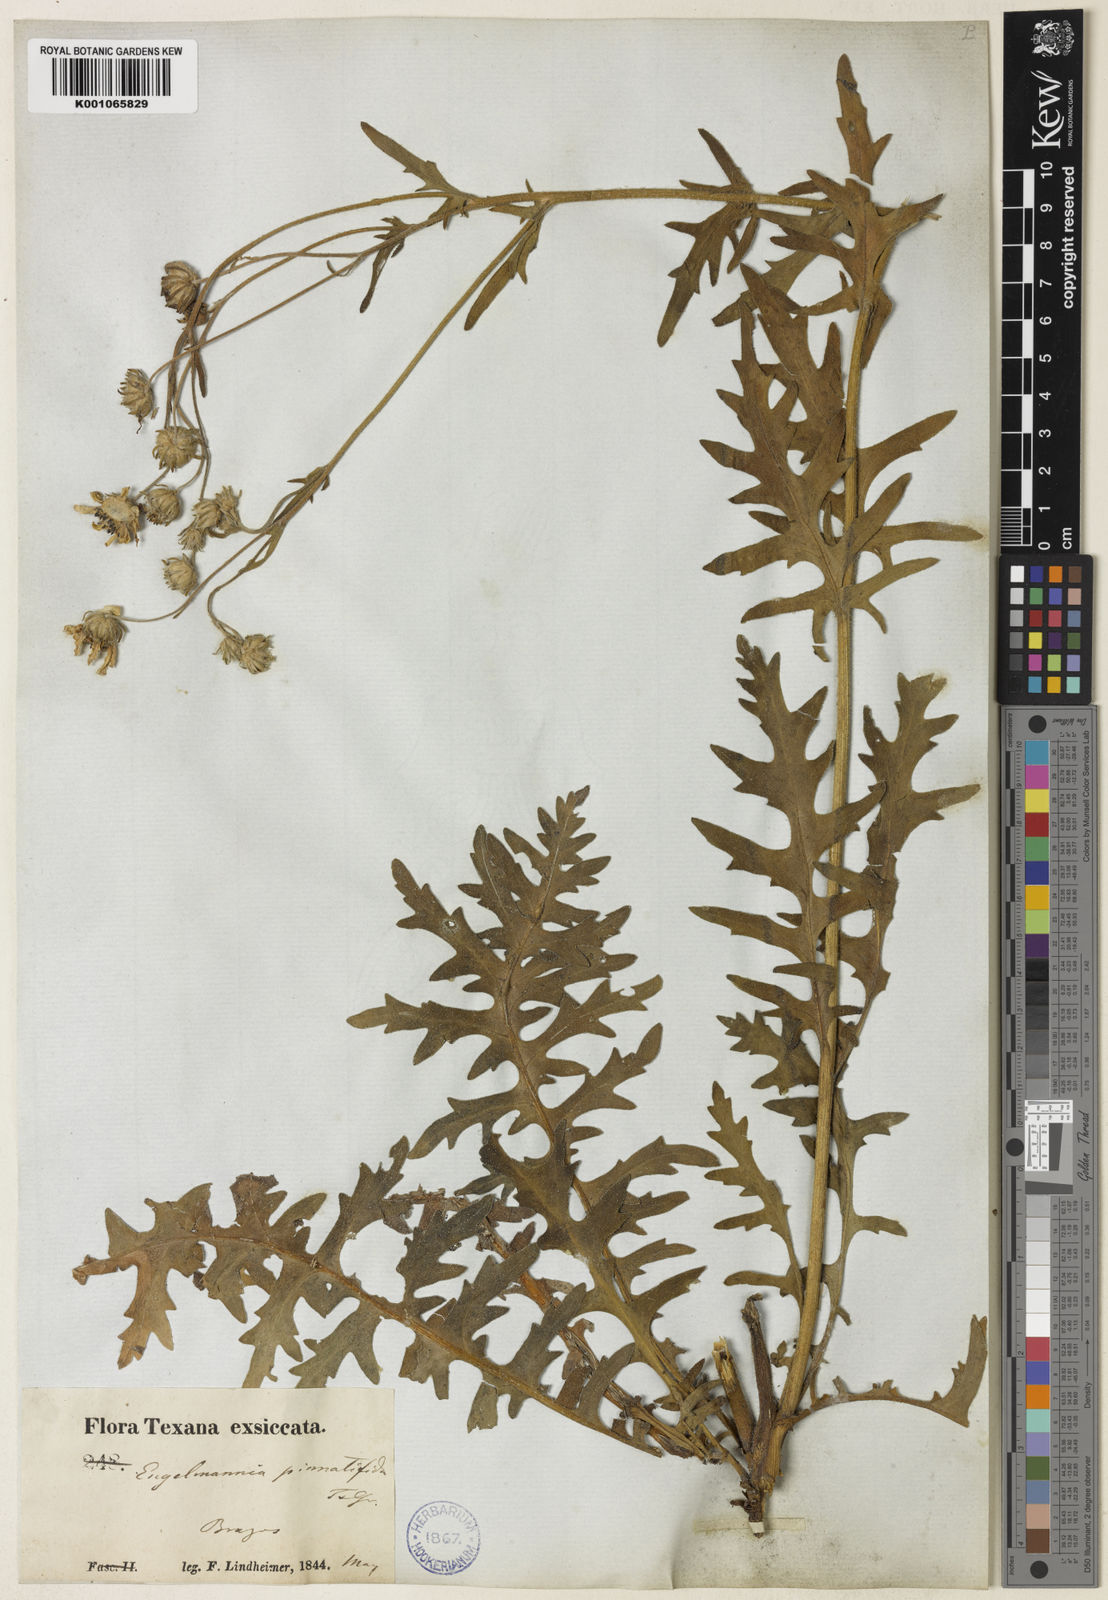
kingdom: Plantae
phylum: Tracheophyta
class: Magnoliopsida
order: Asterales
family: Asteraceae
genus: Engelmannia
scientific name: Engelmannia
